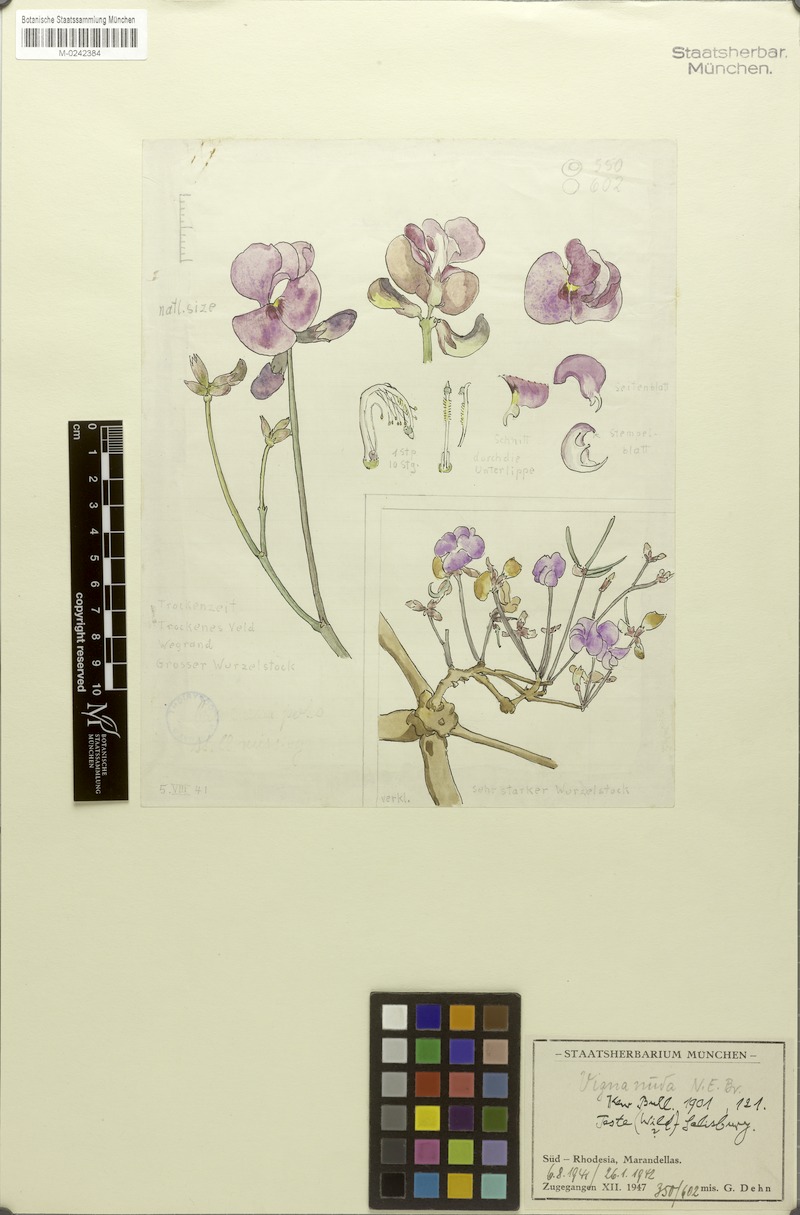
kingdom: Plantae
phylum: Tracheophyta
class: Magnoliopsida
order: Fabales
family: Fabaceae
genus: Vigna
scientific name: Vigna antunesii
